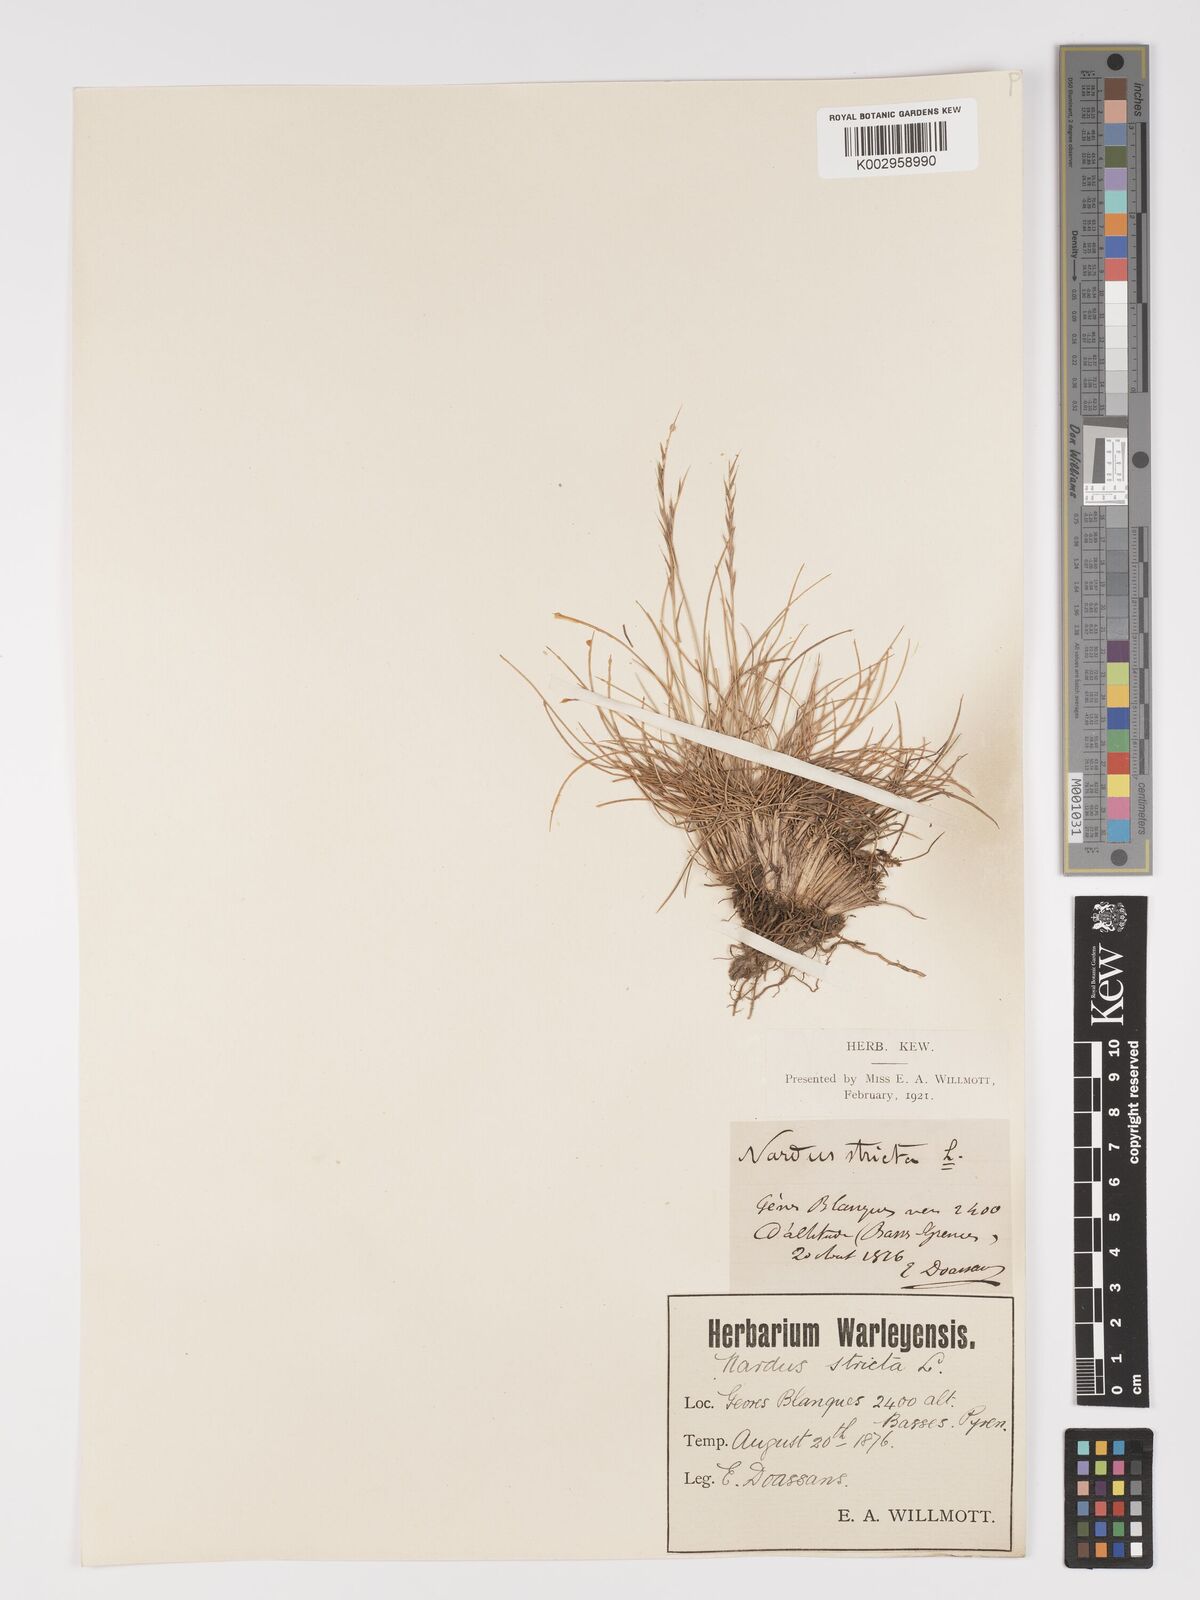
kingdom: Plantae
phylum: Tracheophyta
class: Liliopsida
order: Poales
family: Poaceae
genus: Nardus
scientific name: Nardus stricta
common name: Mat-grass
